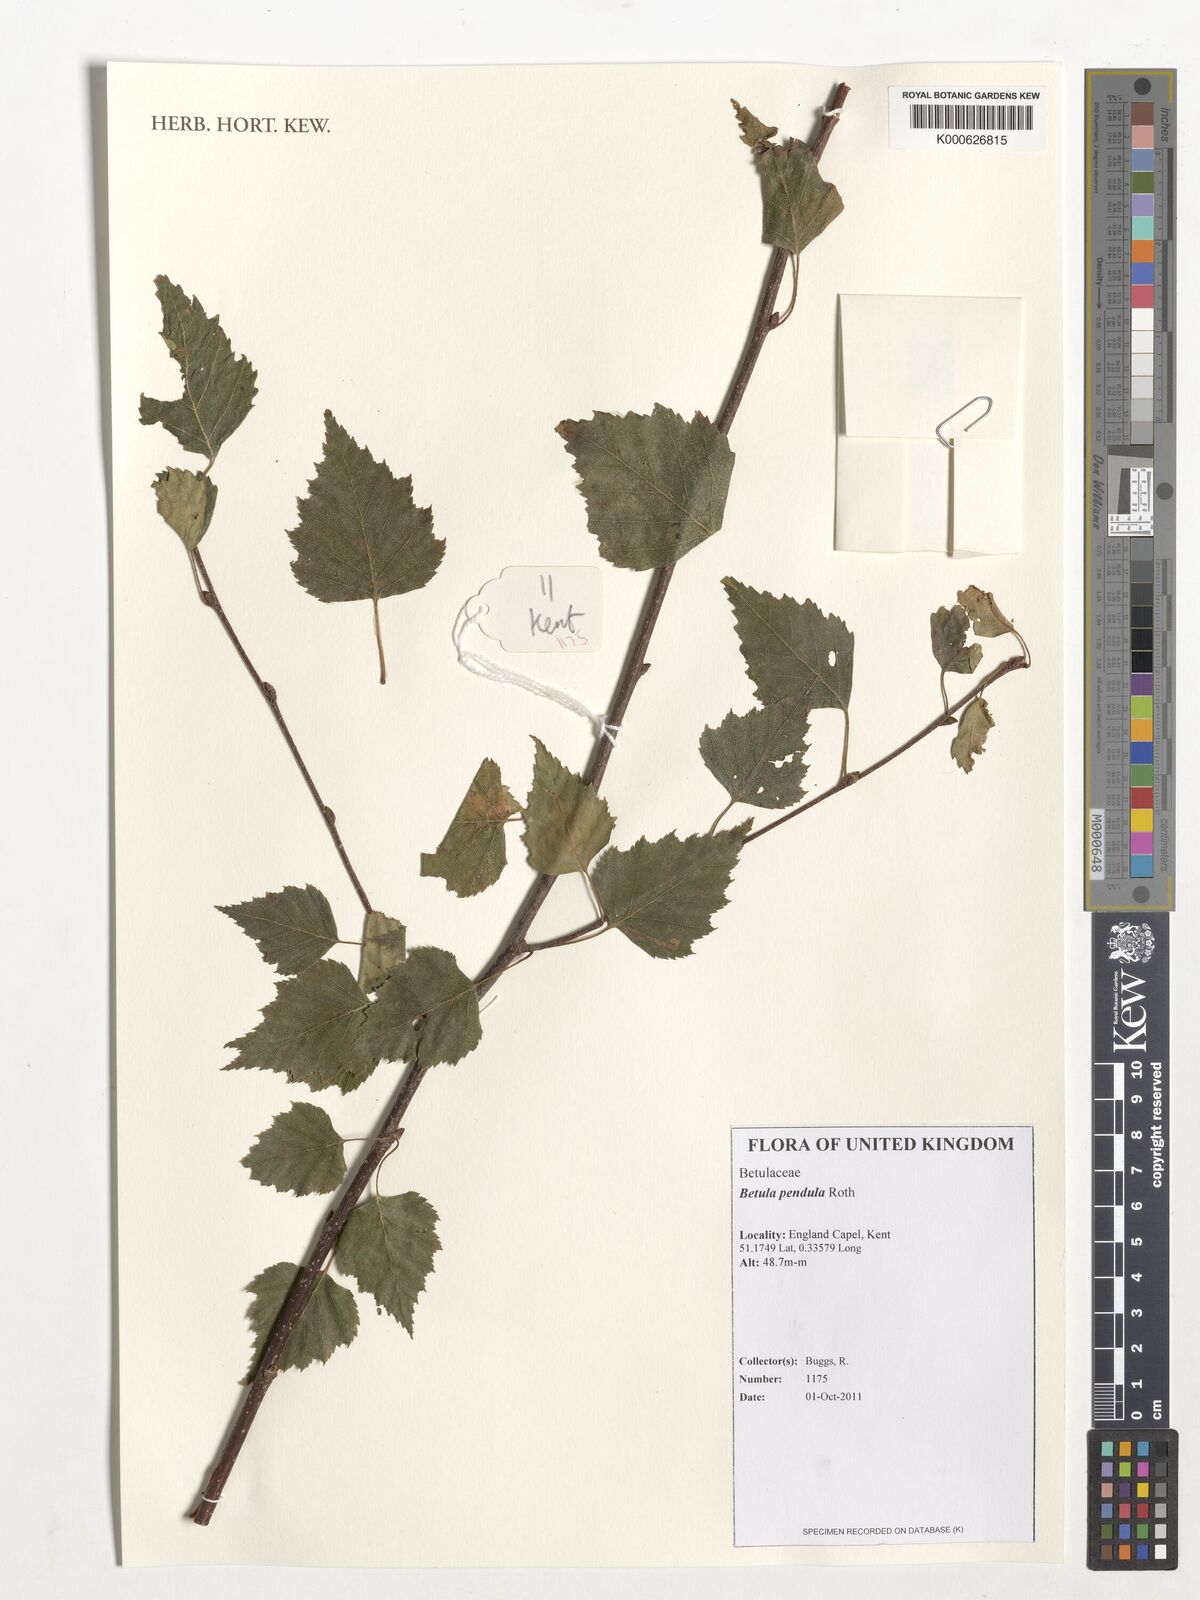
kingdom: Plantae
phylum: Tracheophyta
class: Magnoliopsida
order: Fagales
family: Betulaceae
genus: Betula
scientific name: Betula pendula
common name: Silver birch
